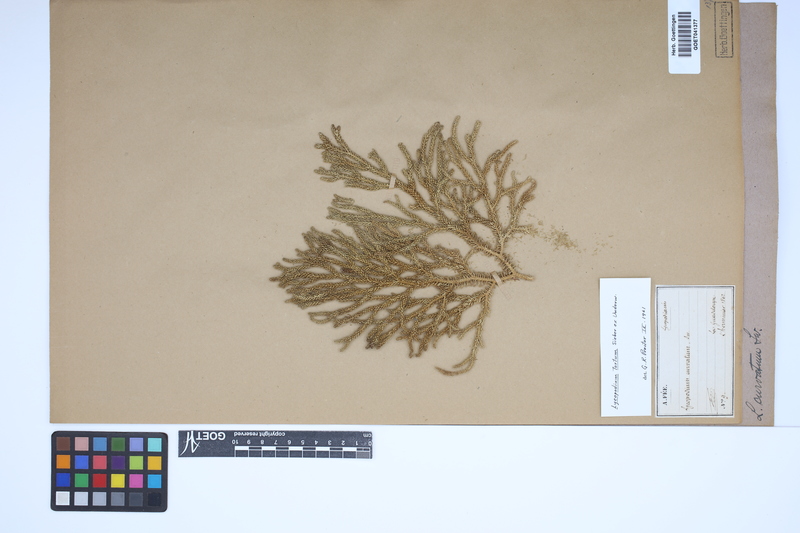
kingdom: Plantae
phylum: Tracheophyta
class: Lycopodiopsida
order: Lycopodiales
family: Lycopodiaceae
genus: Palhinhaea
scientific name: Palhinhaea curvata
